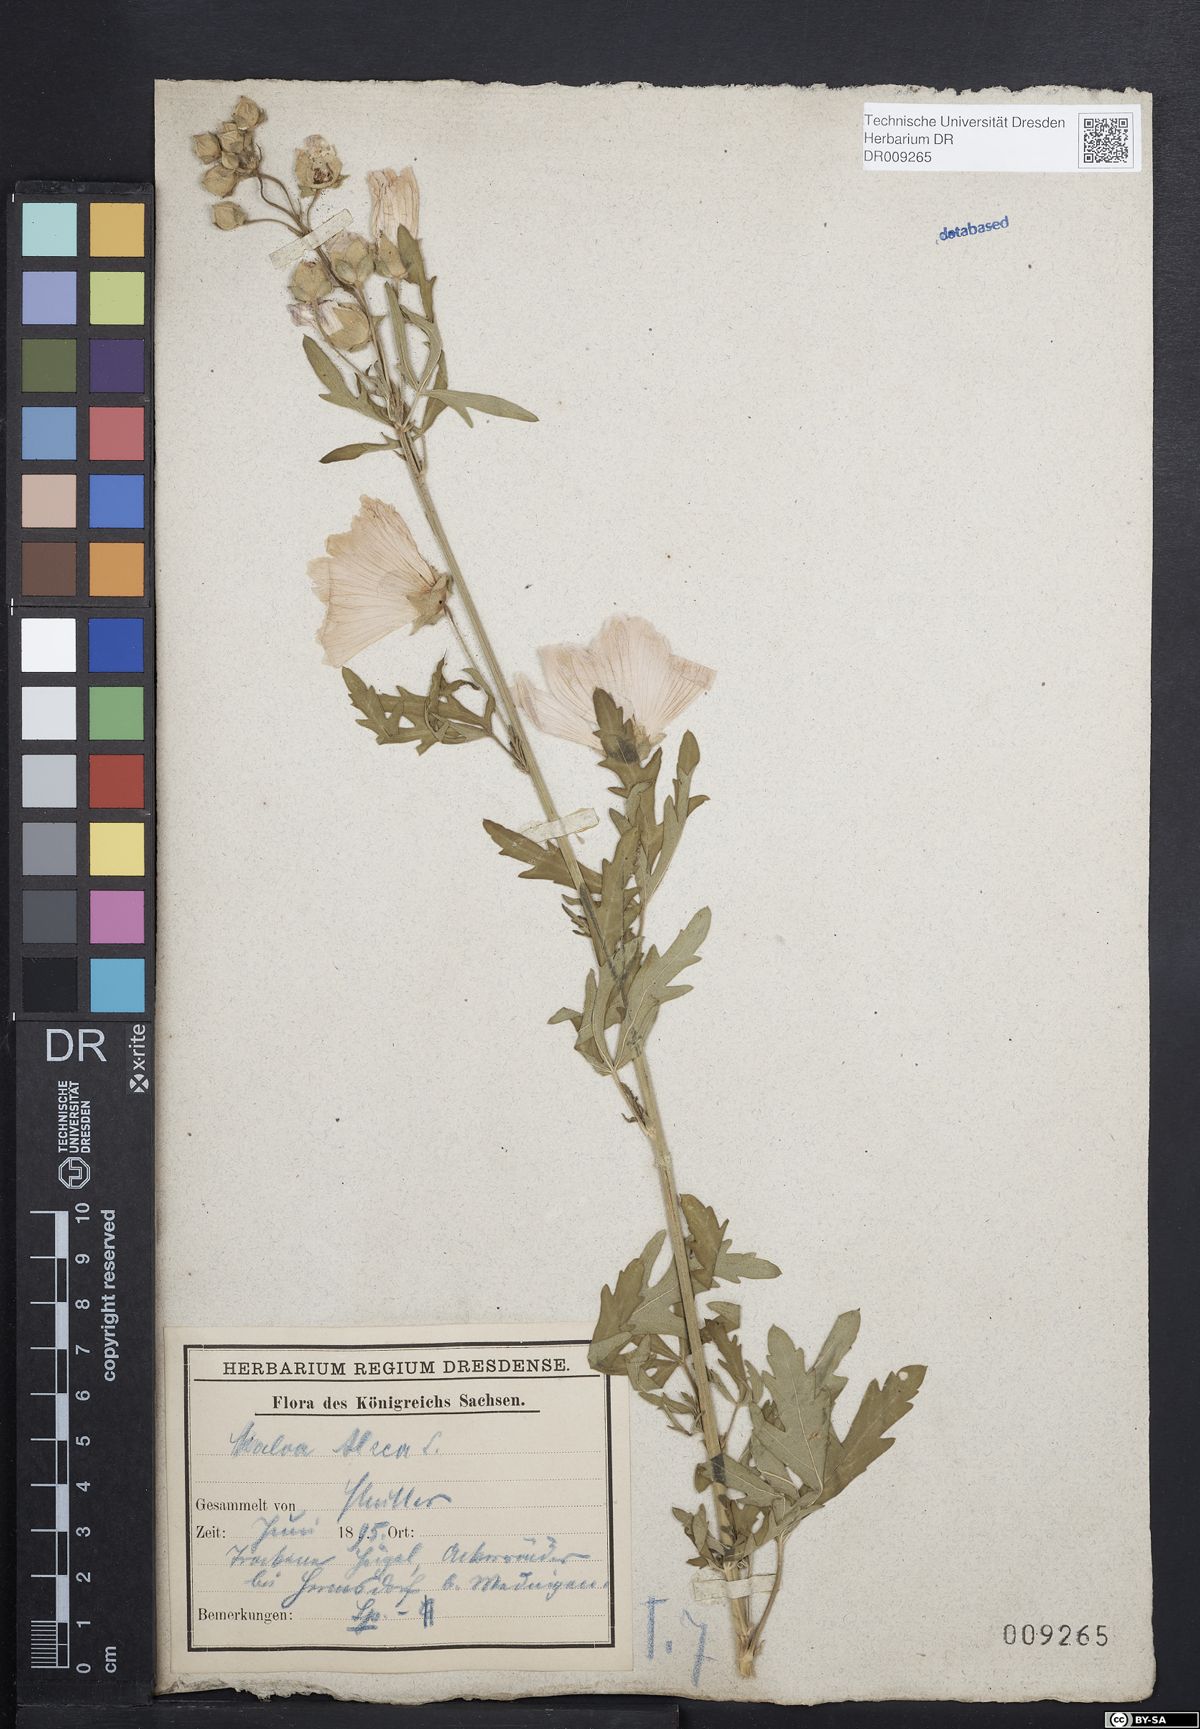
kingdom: Plantae
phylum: Tracheophyta
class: Magnoliopsida
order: Malvales
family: Malvaceae
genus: Malva
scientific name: Malva alcea
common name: Greater musk-mallow
